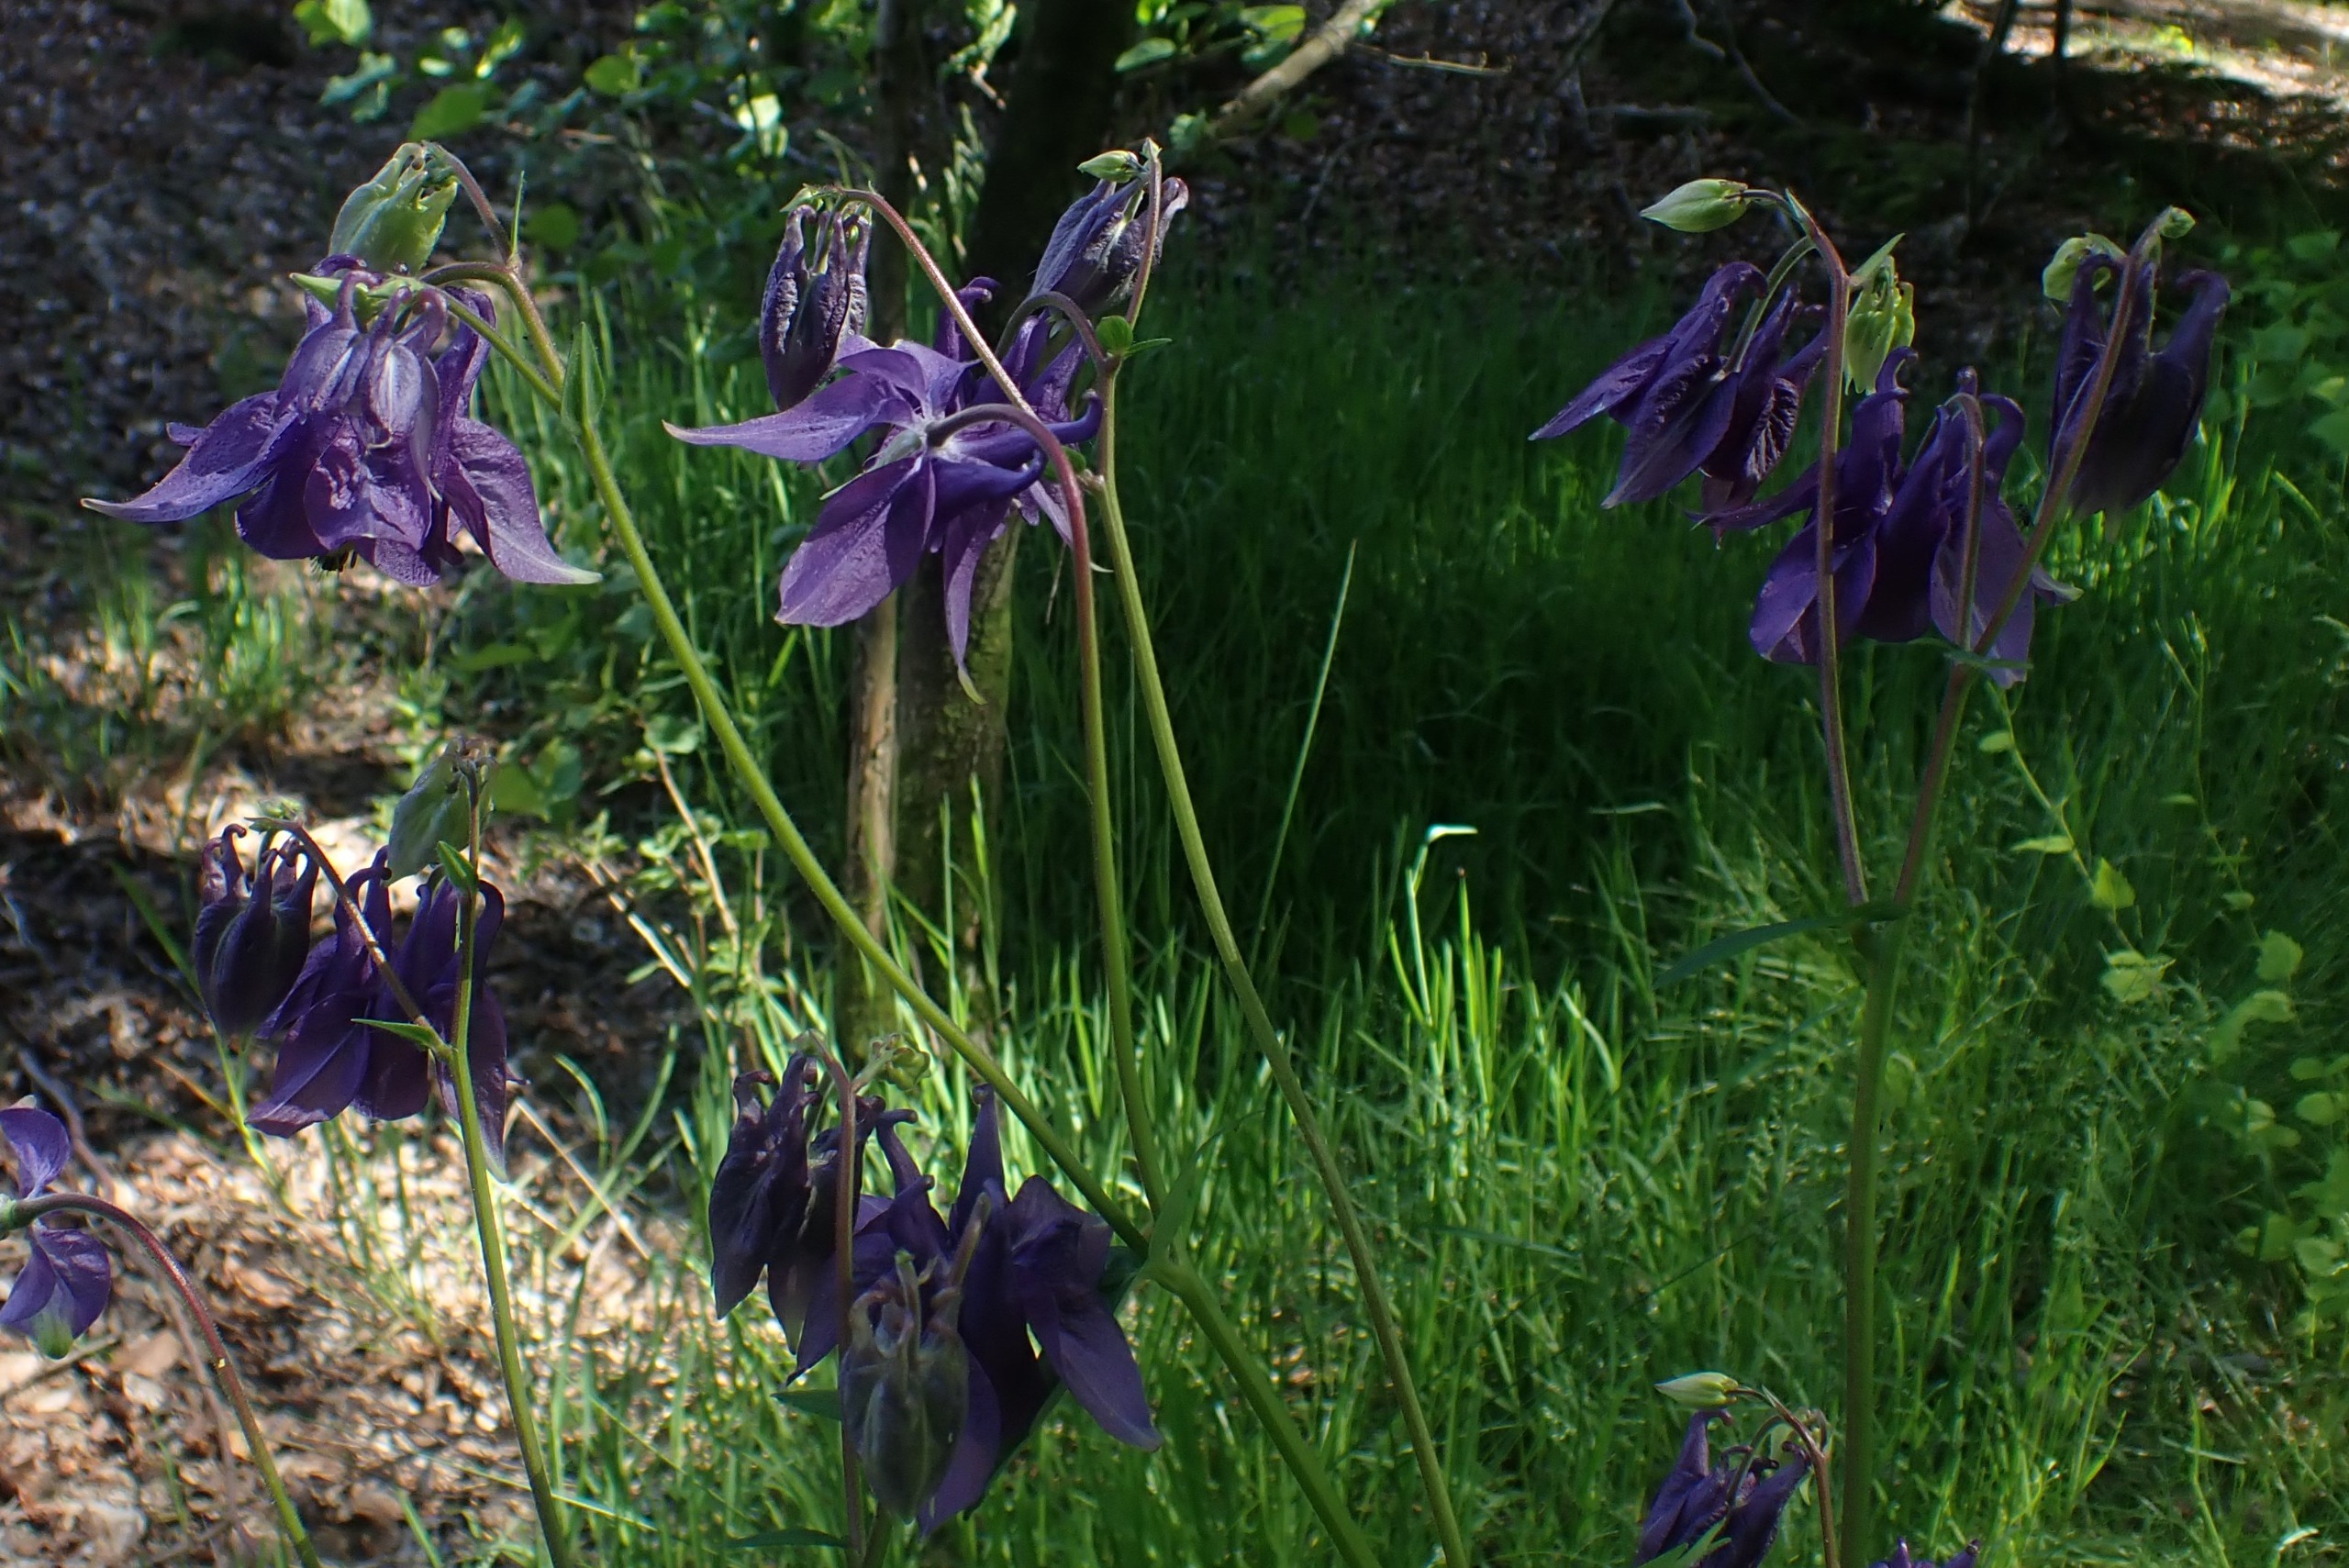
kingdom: Plantae
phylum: Tracheophyta
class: Magnoliopsida
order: Ranunculales
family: Ranunculaceae
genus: Aquilegia
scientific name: Aquilegia vulgaris
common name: Akeleje
